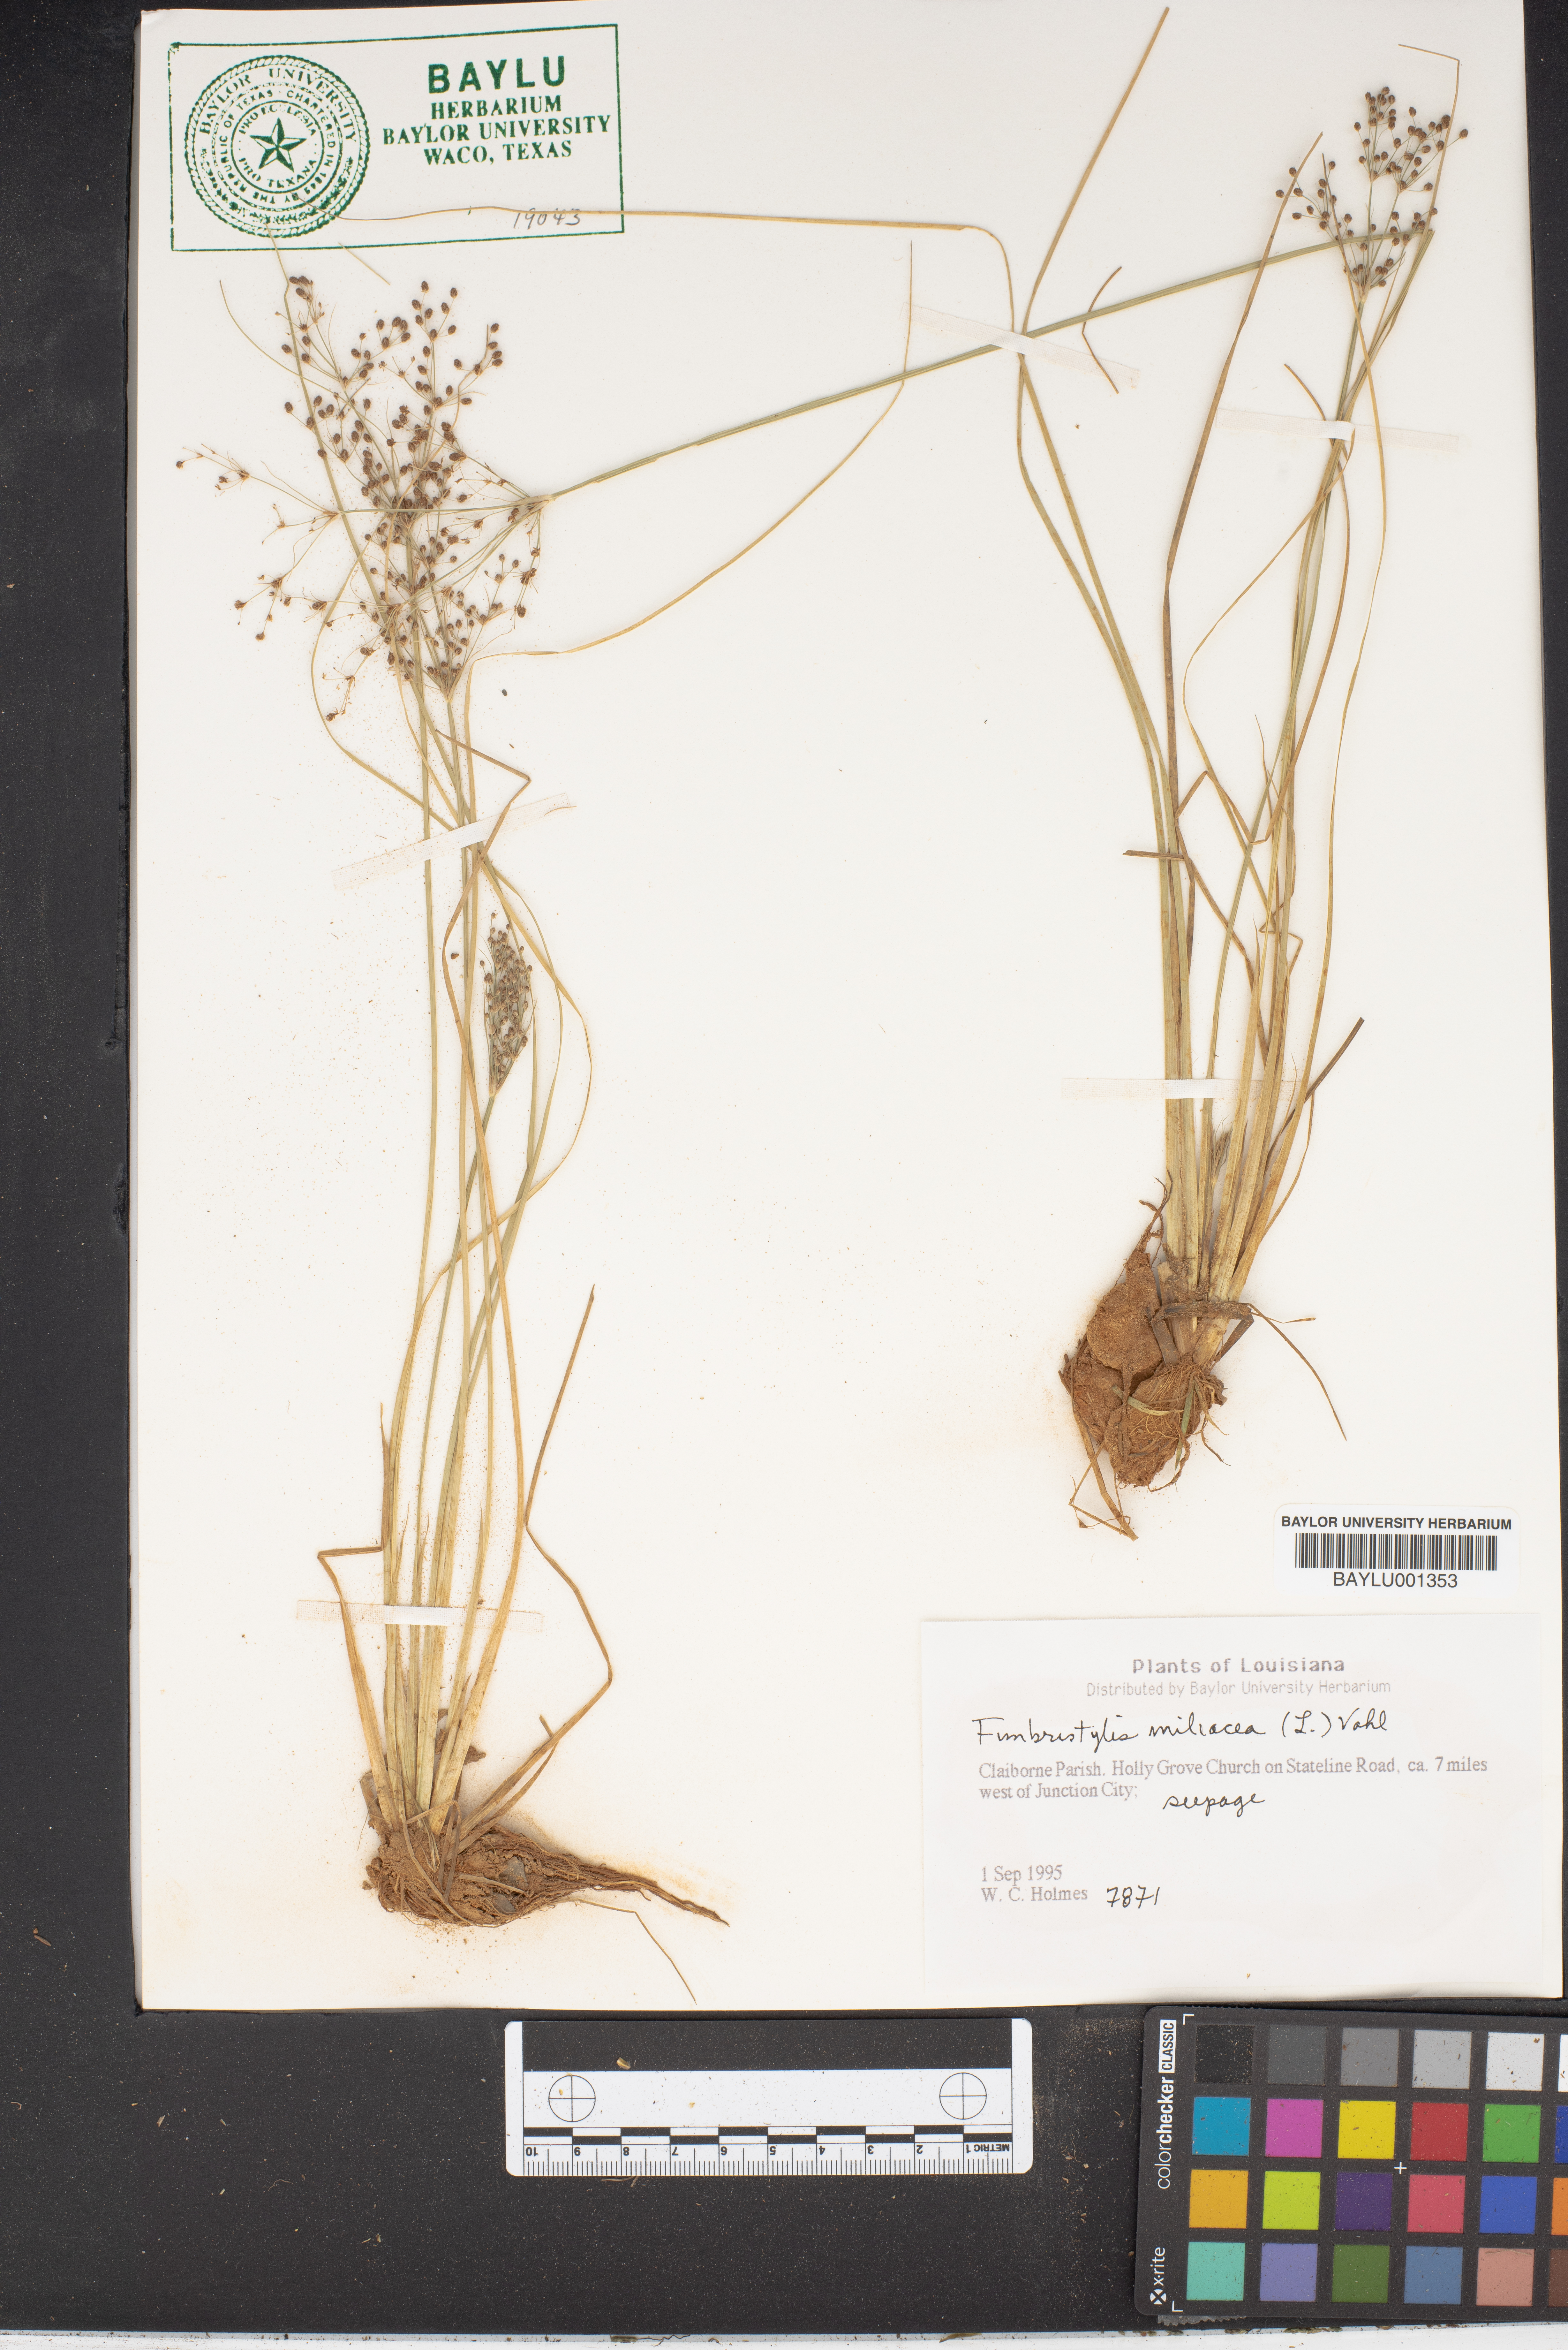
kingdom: Plantae
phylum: Tracheophyta
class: Liliopsida
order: Poales
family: Cyperaceae
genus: Fimbristylis
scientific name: Fimbristylis quinquangularis
